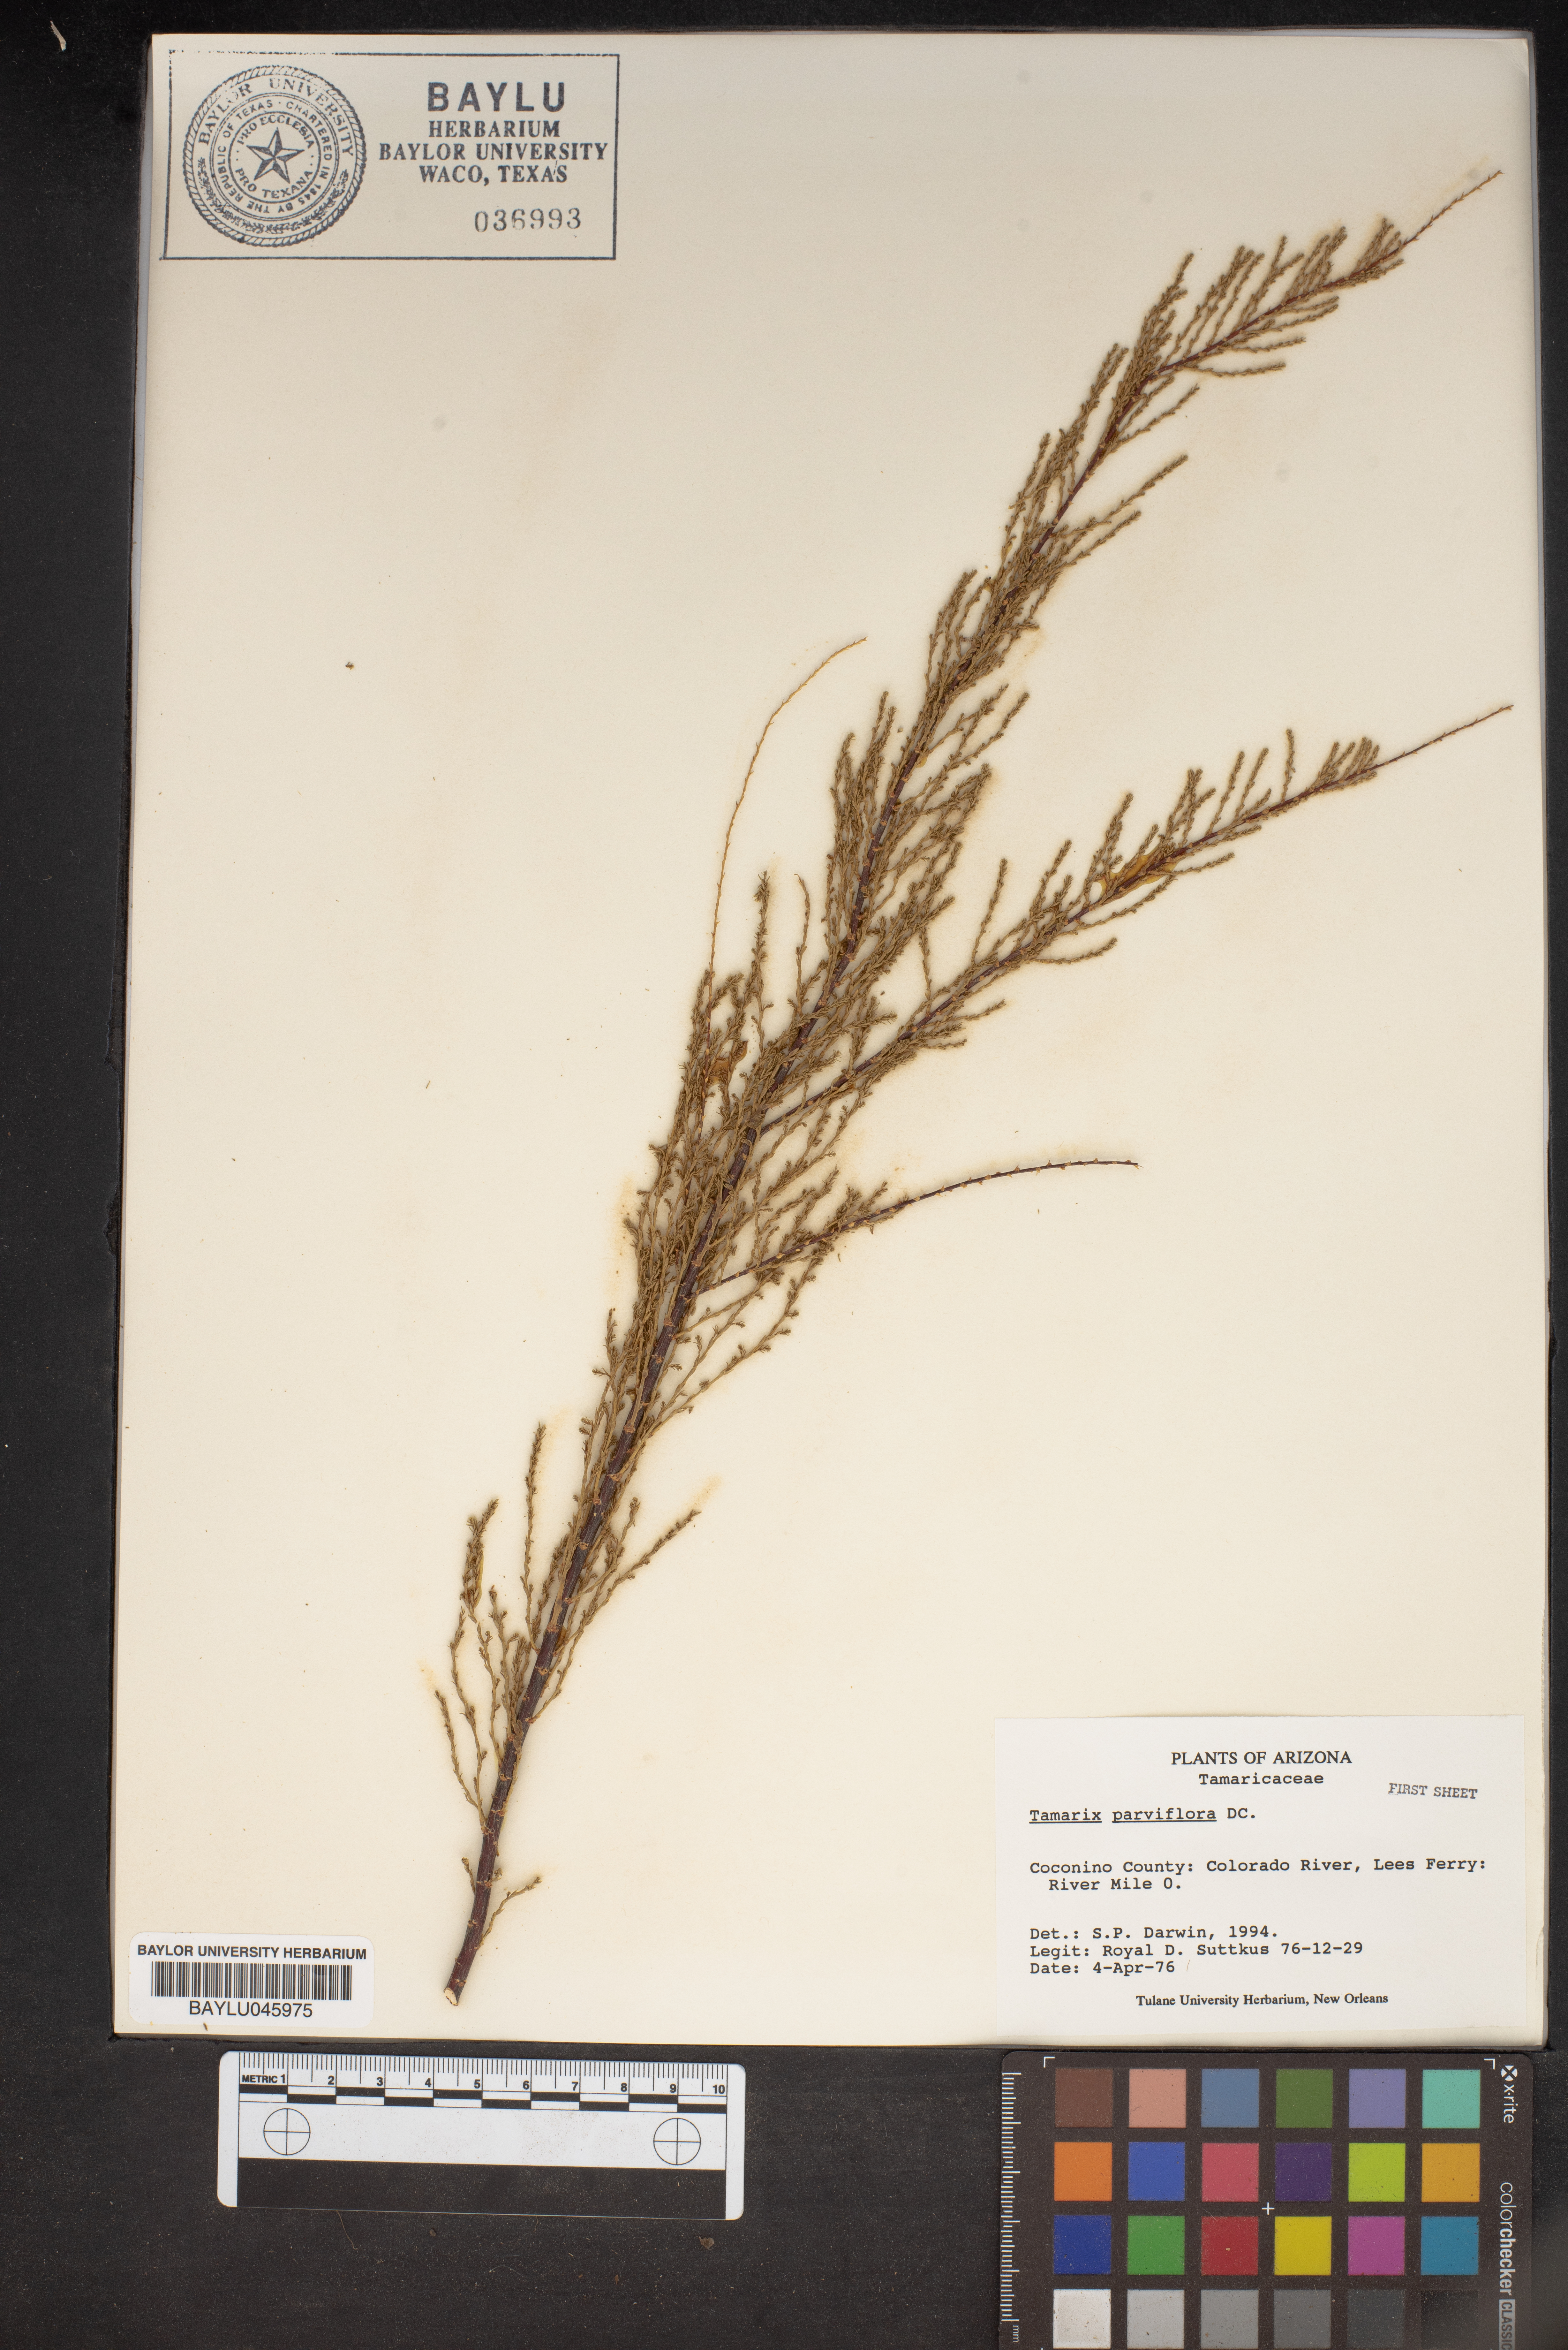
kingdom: Plantae
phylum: Tracheophyta
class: Magnoliopsida
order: Caryophyllales
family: Tamaricaceae
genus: Tamarix
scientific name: Tamarix parviflora
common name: Smallflower tamarisk
